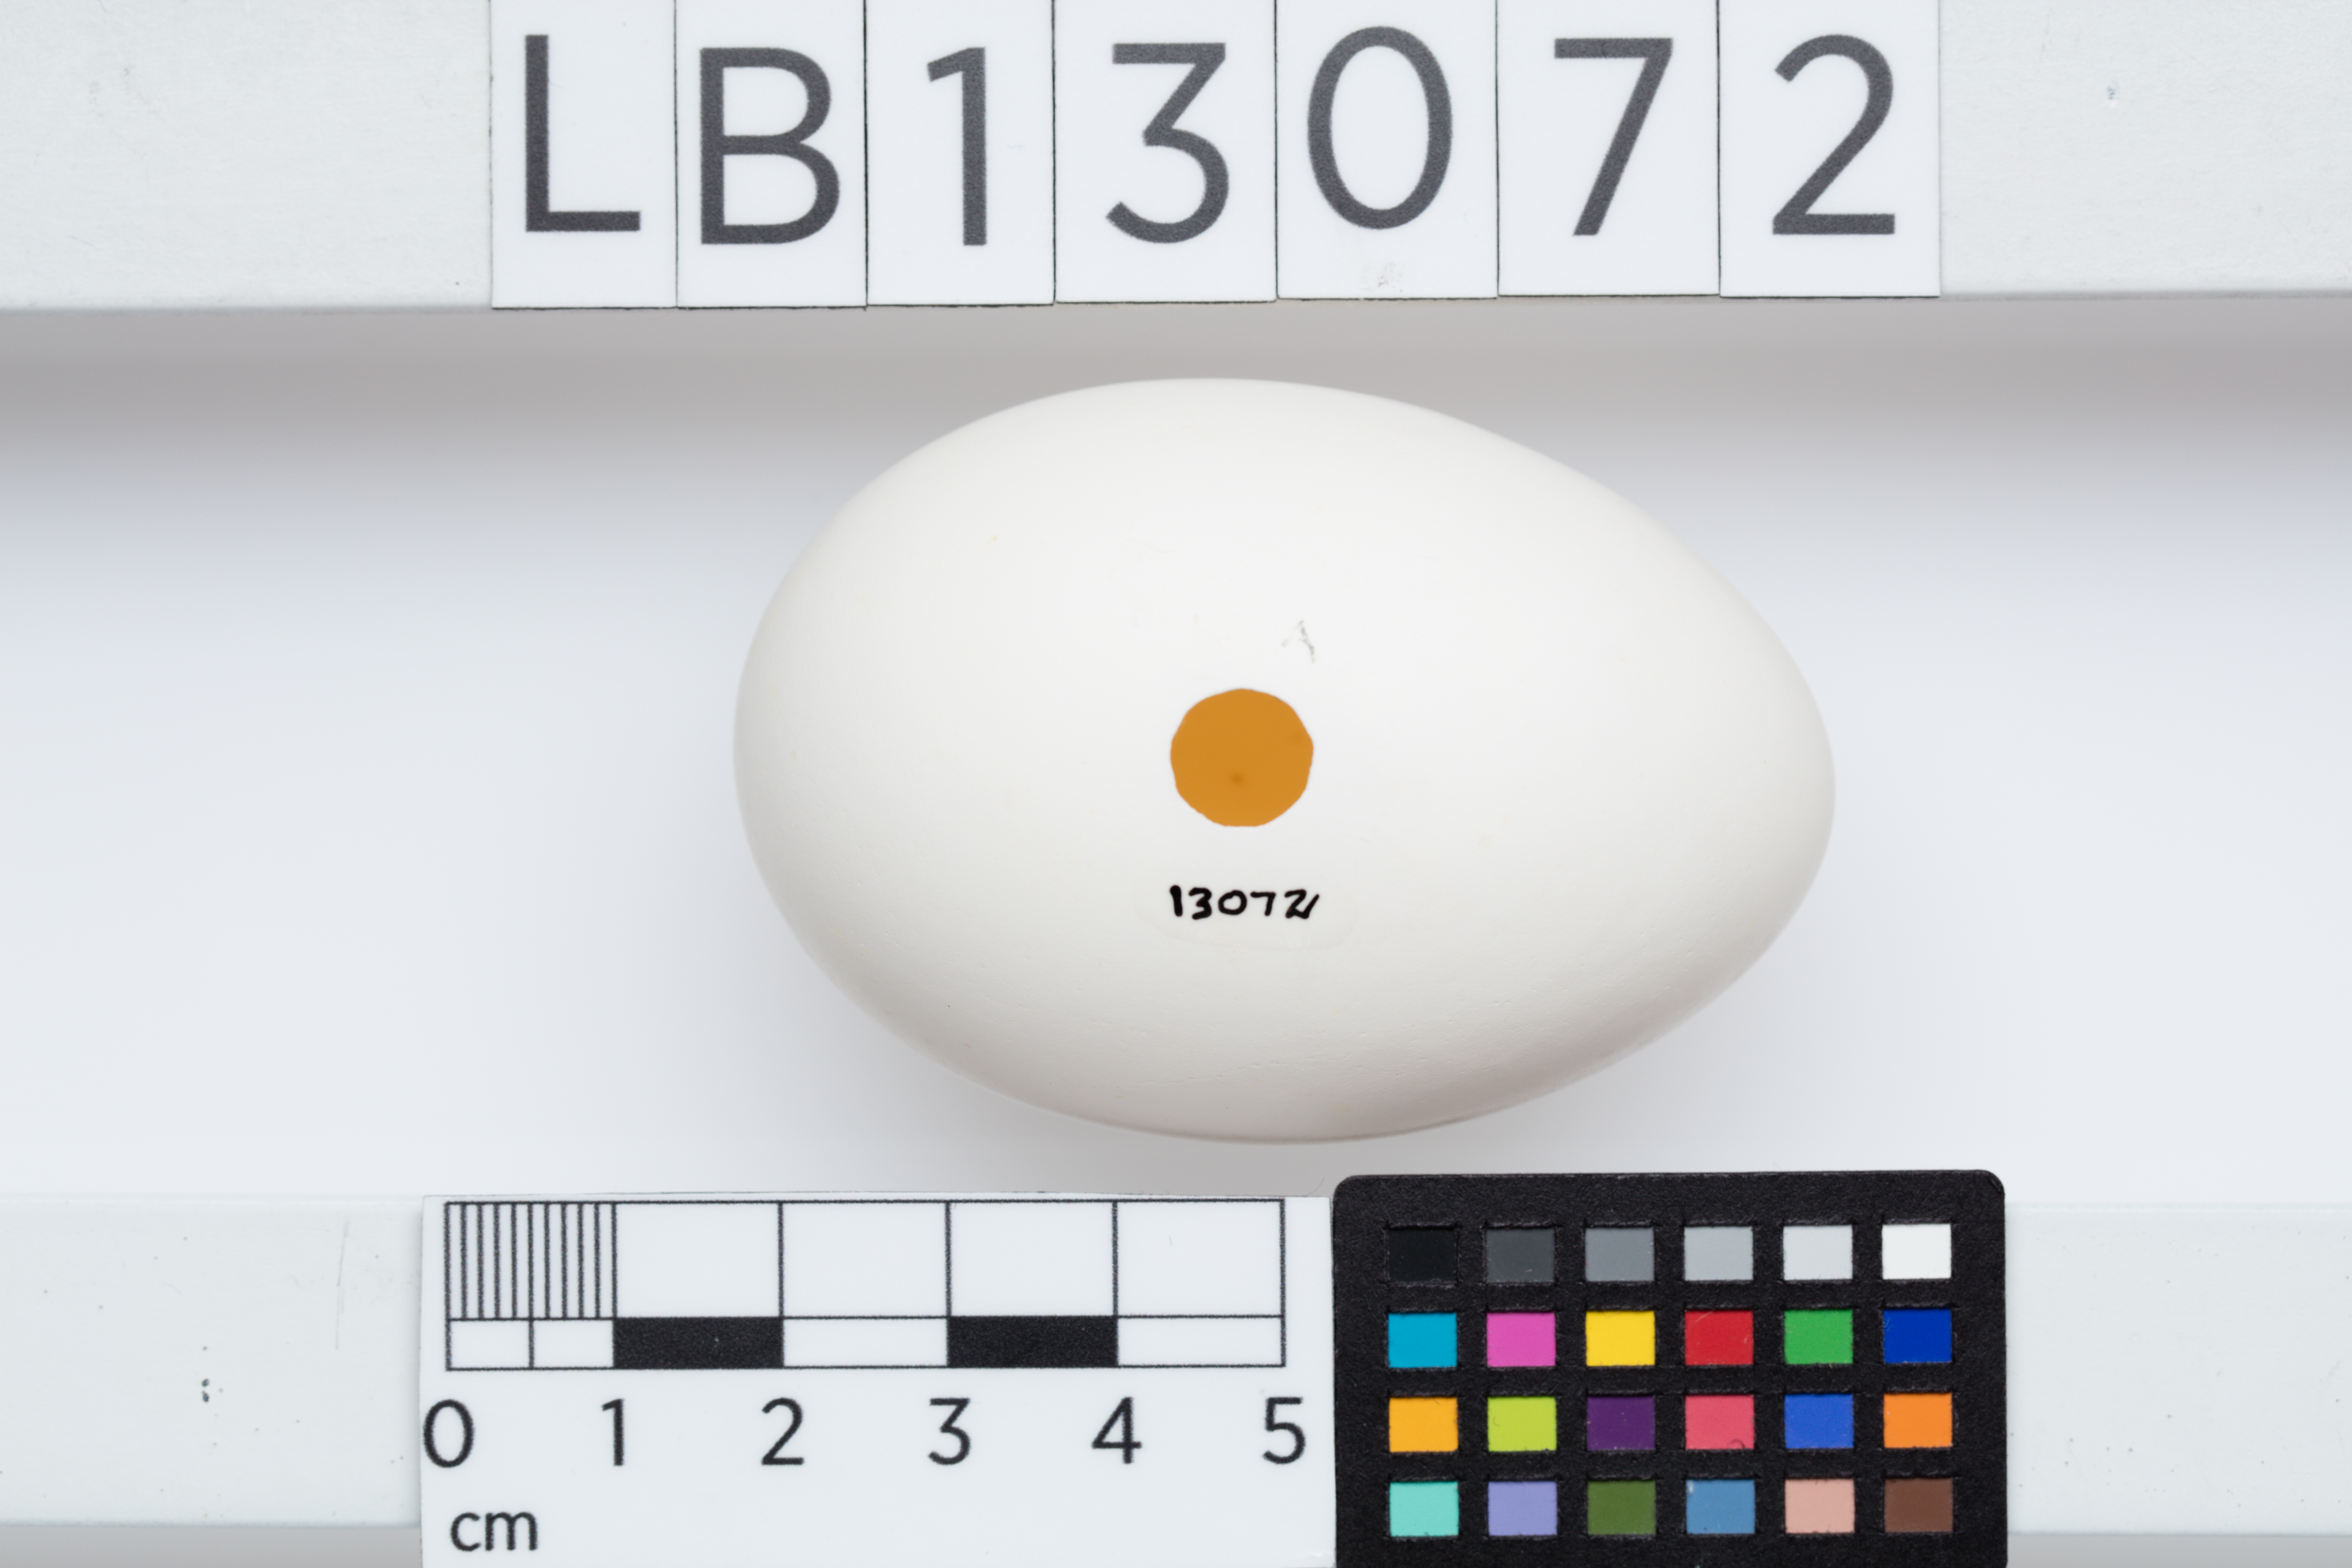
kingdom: Animalia
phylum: Chordata
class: Aves
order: Procellariiformes
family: Procellariidae
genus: Pterodroma
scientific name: Pterodroma neglecta
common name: Kermadec petrel
